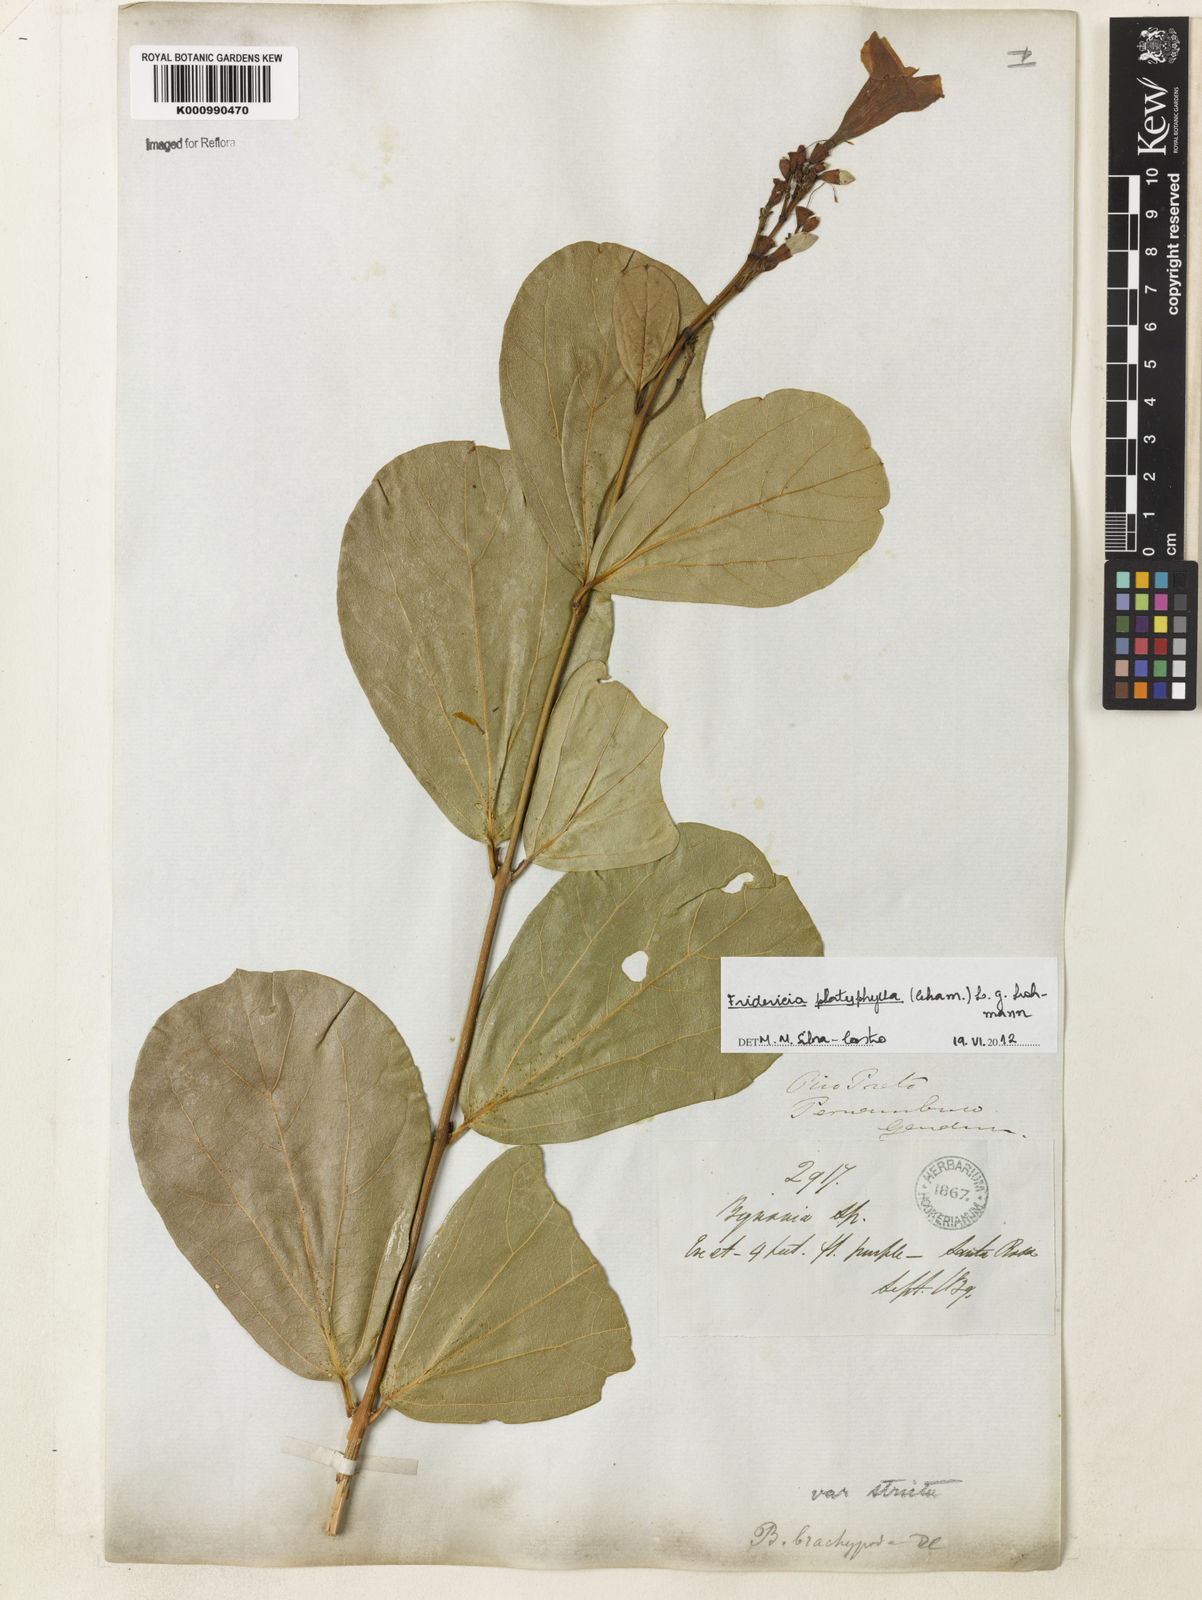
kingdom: Plantae
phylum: Tracheophyta
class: Magnoliopsida
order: Lamiales
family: Bignoniaceae
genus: Fridericia
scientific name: Fridericia platyphylla
